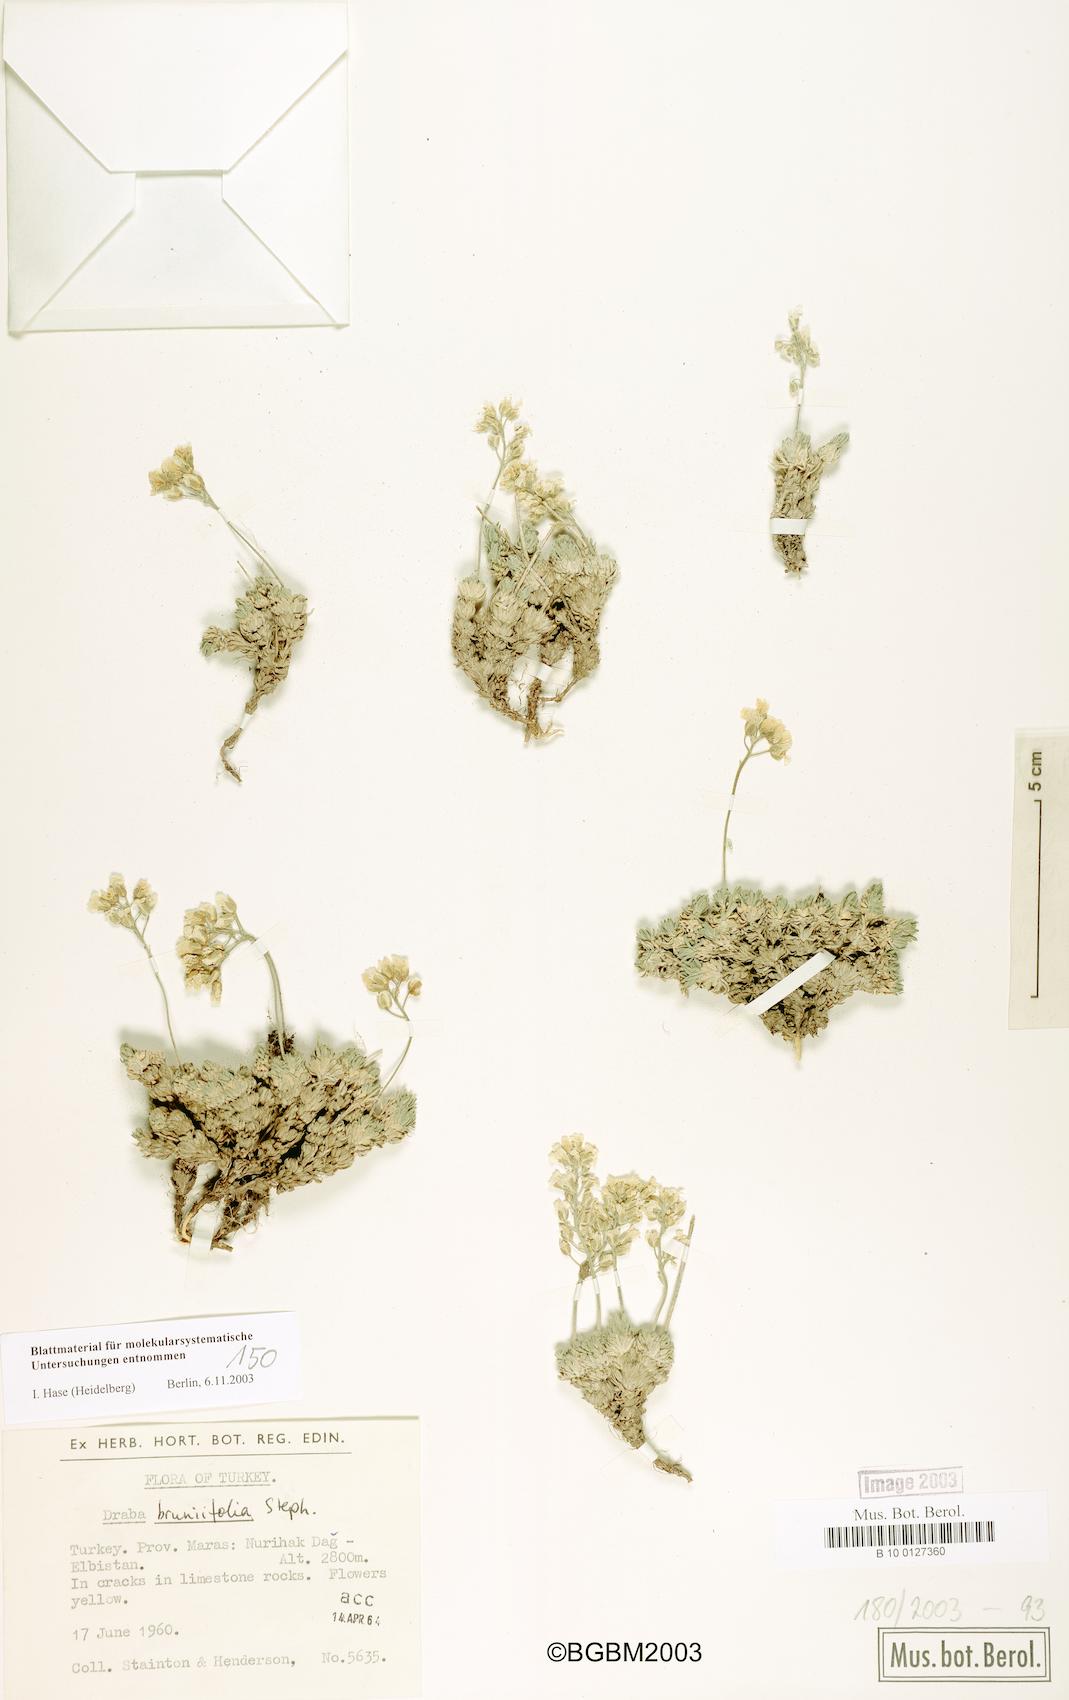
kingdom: Plantae
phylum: Tracheophyta
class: Magnoliopsida
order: Brassicales
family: Brassicaceae
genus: Draba
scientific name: Draba
